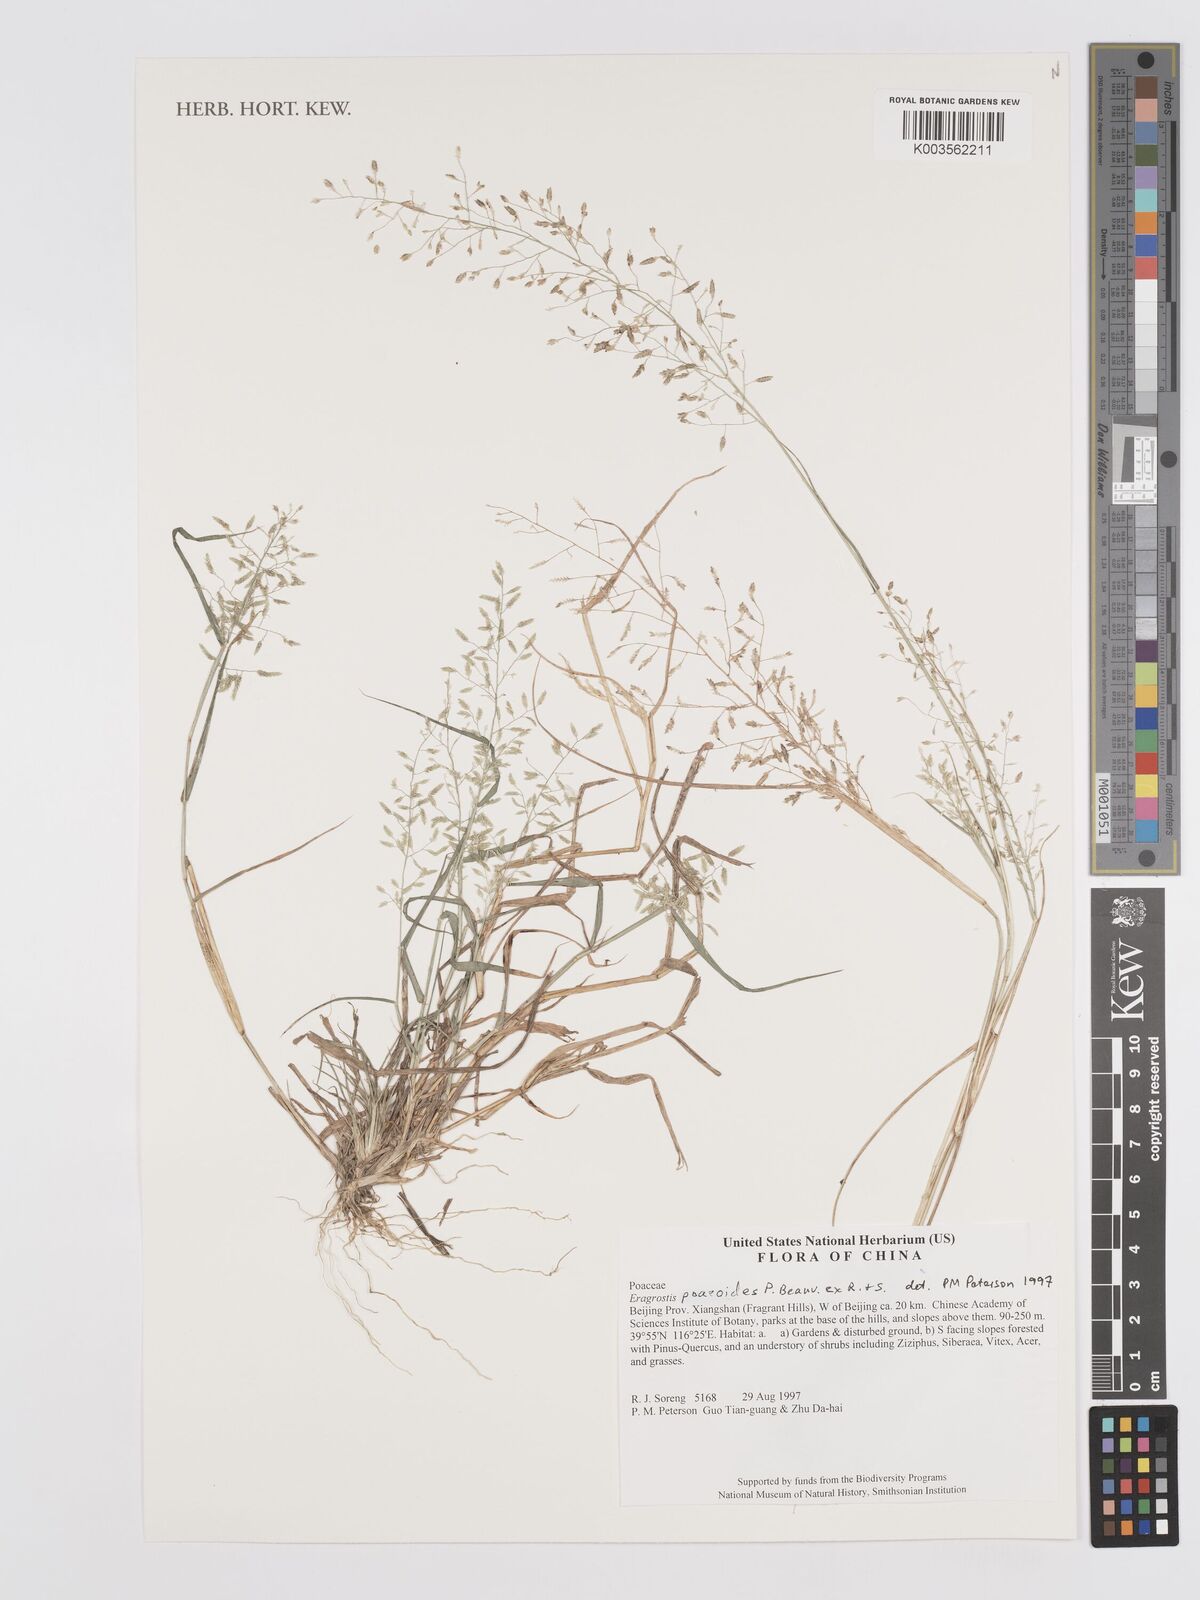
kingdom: Plantae
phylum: Tracheophyta
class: Liliopsida
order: Poales
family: Poaceae
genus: Eragrostis
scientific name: Eragrostis minor
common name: Small love-grass
